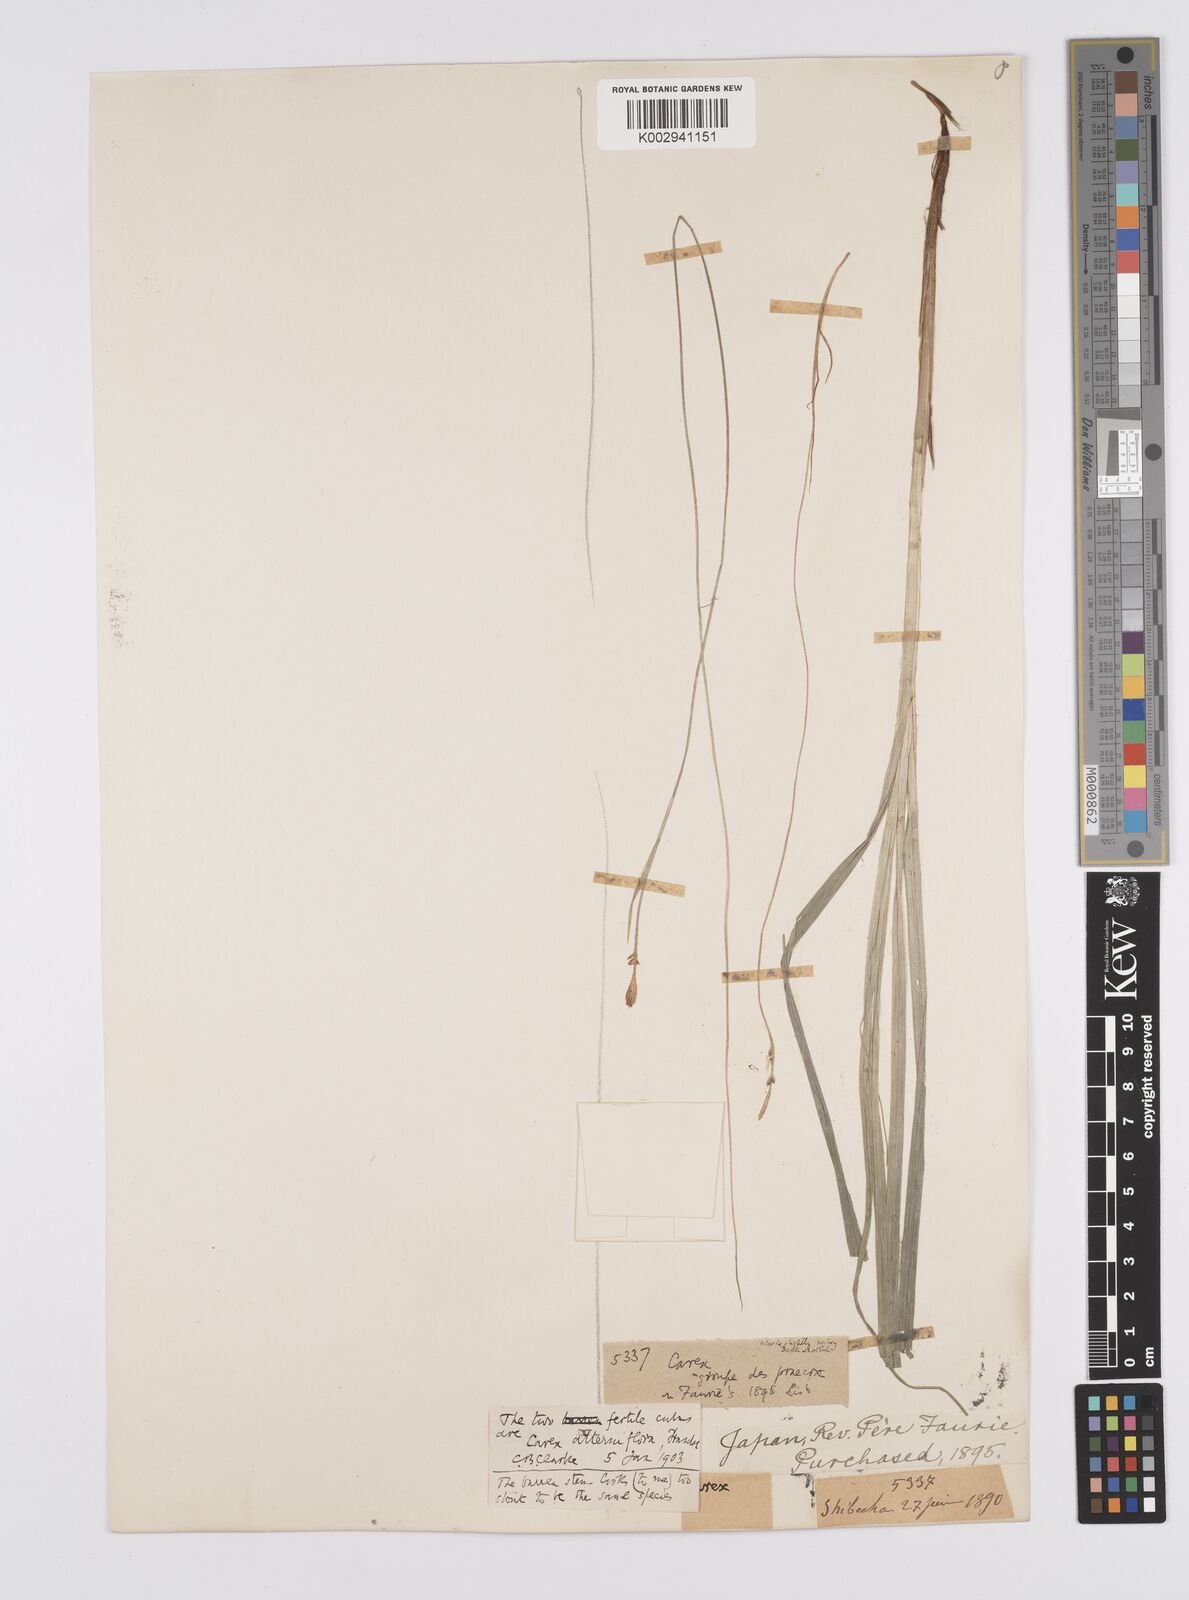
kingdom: Plantae
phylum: Tracheophyta
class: Liliopsida
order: Poales
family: Cyperaceae
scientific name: Cyperaceae
